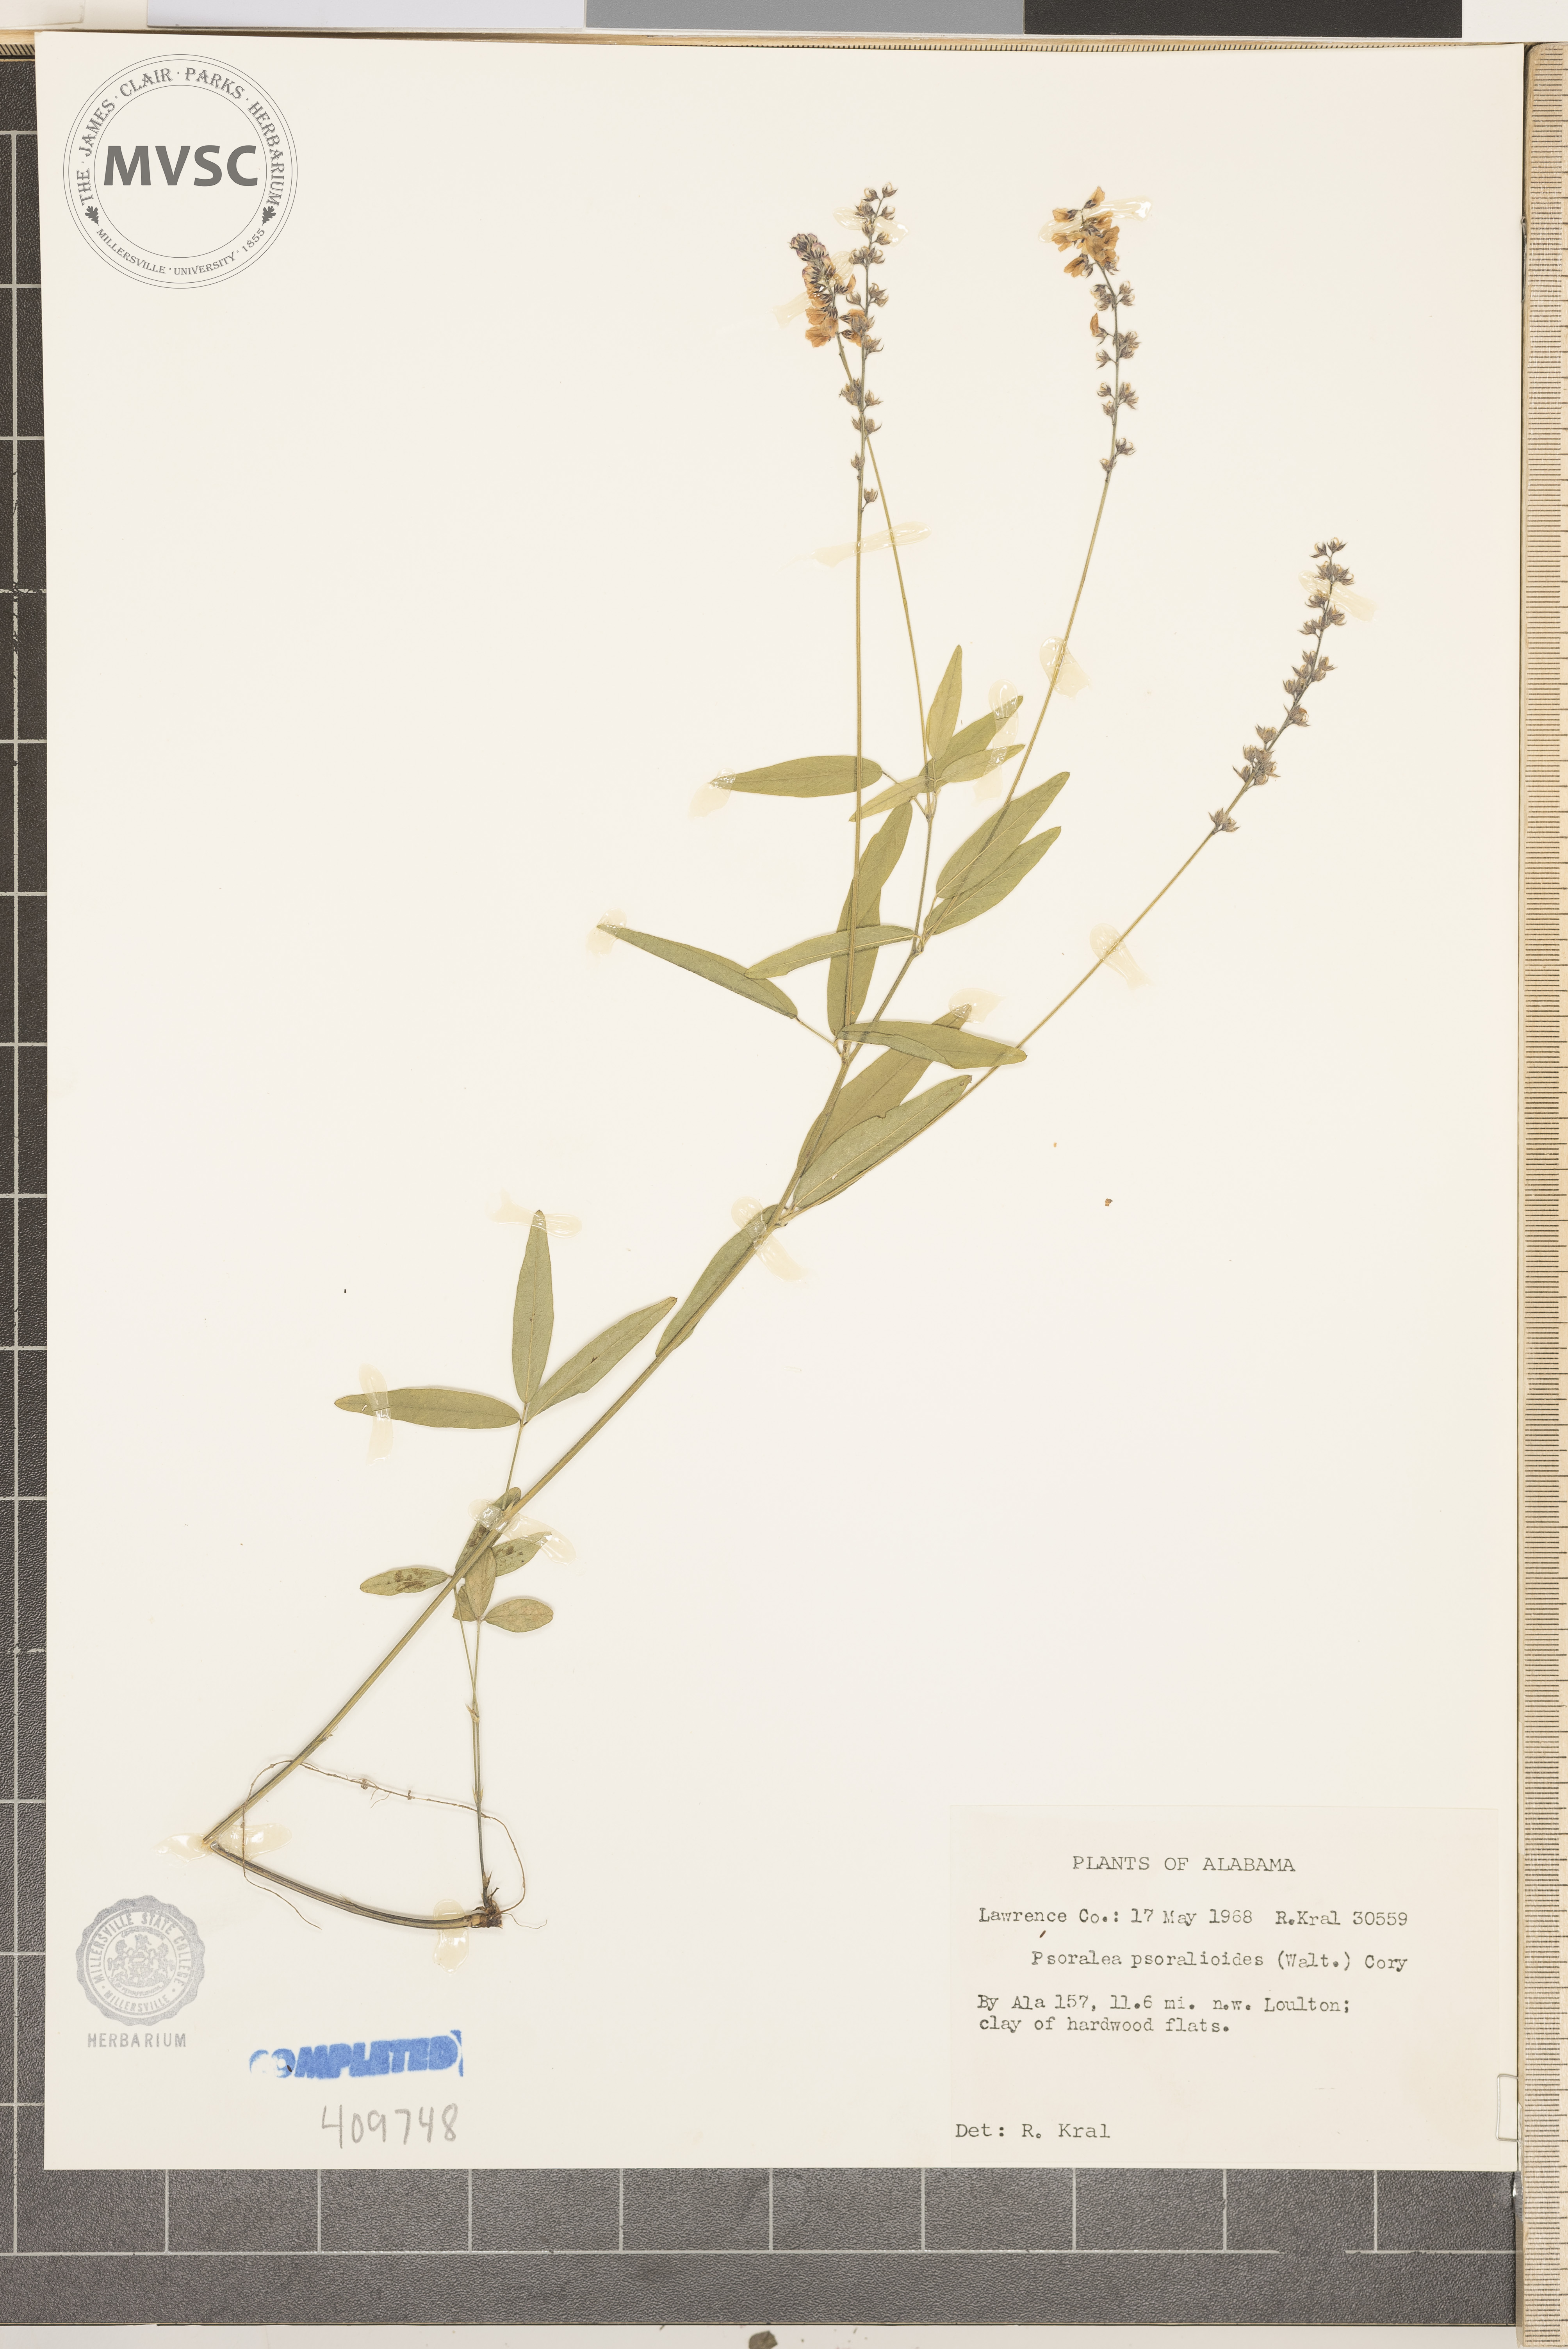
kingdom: Plantae
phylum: Tracheophyta
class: Magnoliopsida
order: Fabales
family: Fabaceae
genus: Orbexilum
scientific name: Orbexilum psoralioides
